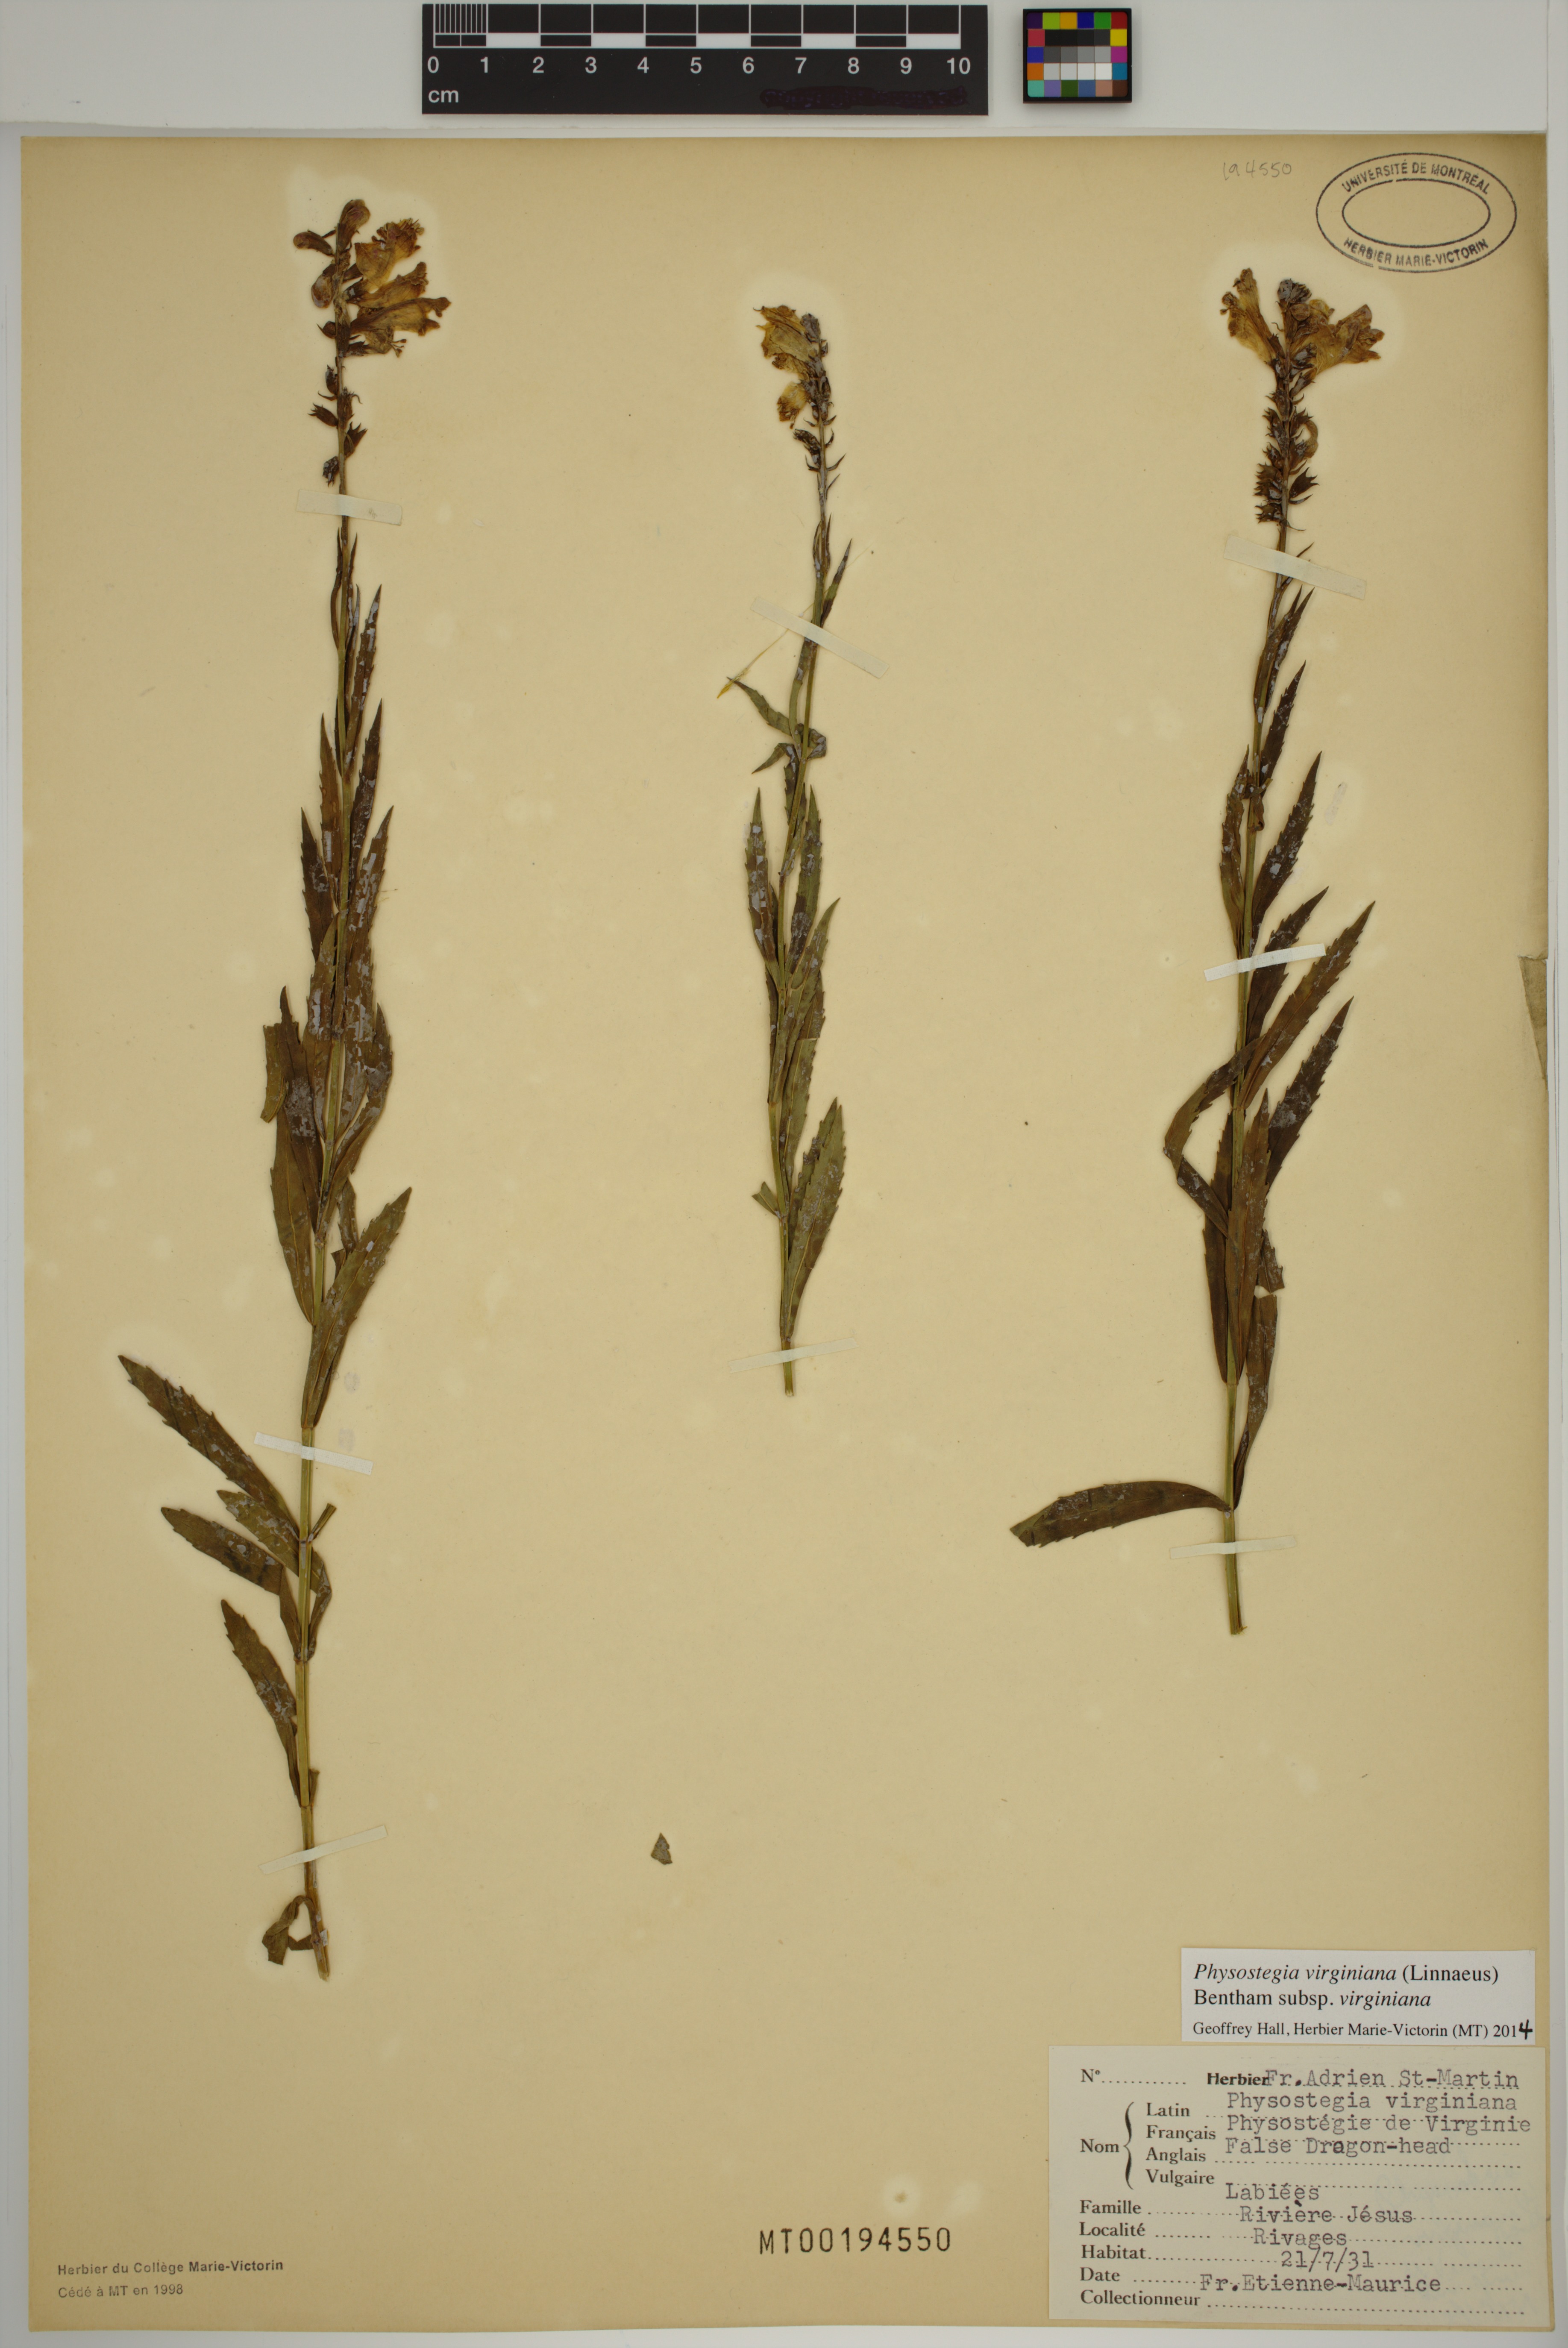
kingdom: Plantae
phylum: Tracheophyta
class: Magnoliopsida
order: Lamiales
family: Lamiaceae
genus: Physostegia
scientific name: Physostegia virginiana
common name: Obedient-plant
